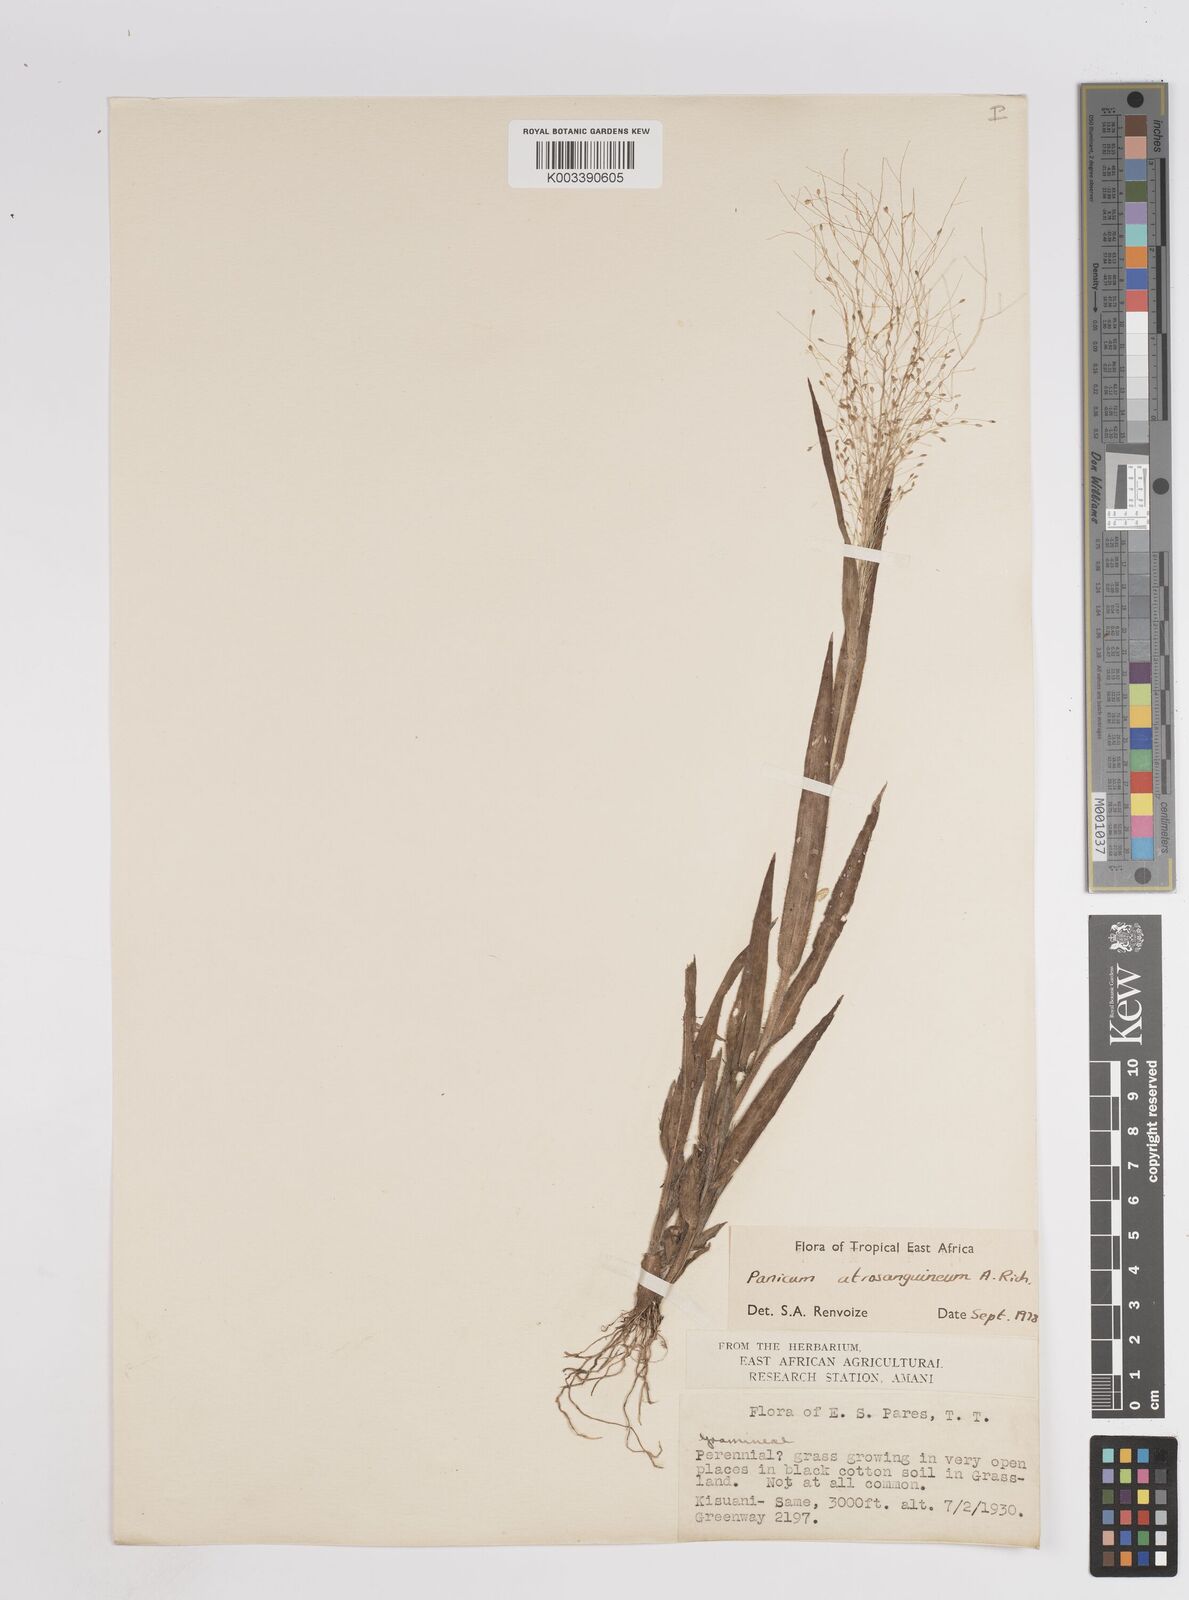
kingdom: Plantae
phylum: Tracheophyta
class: Liliopsida
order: Poales
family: Poaceae
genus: Panicum
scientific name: Panicum atrosanguineum
